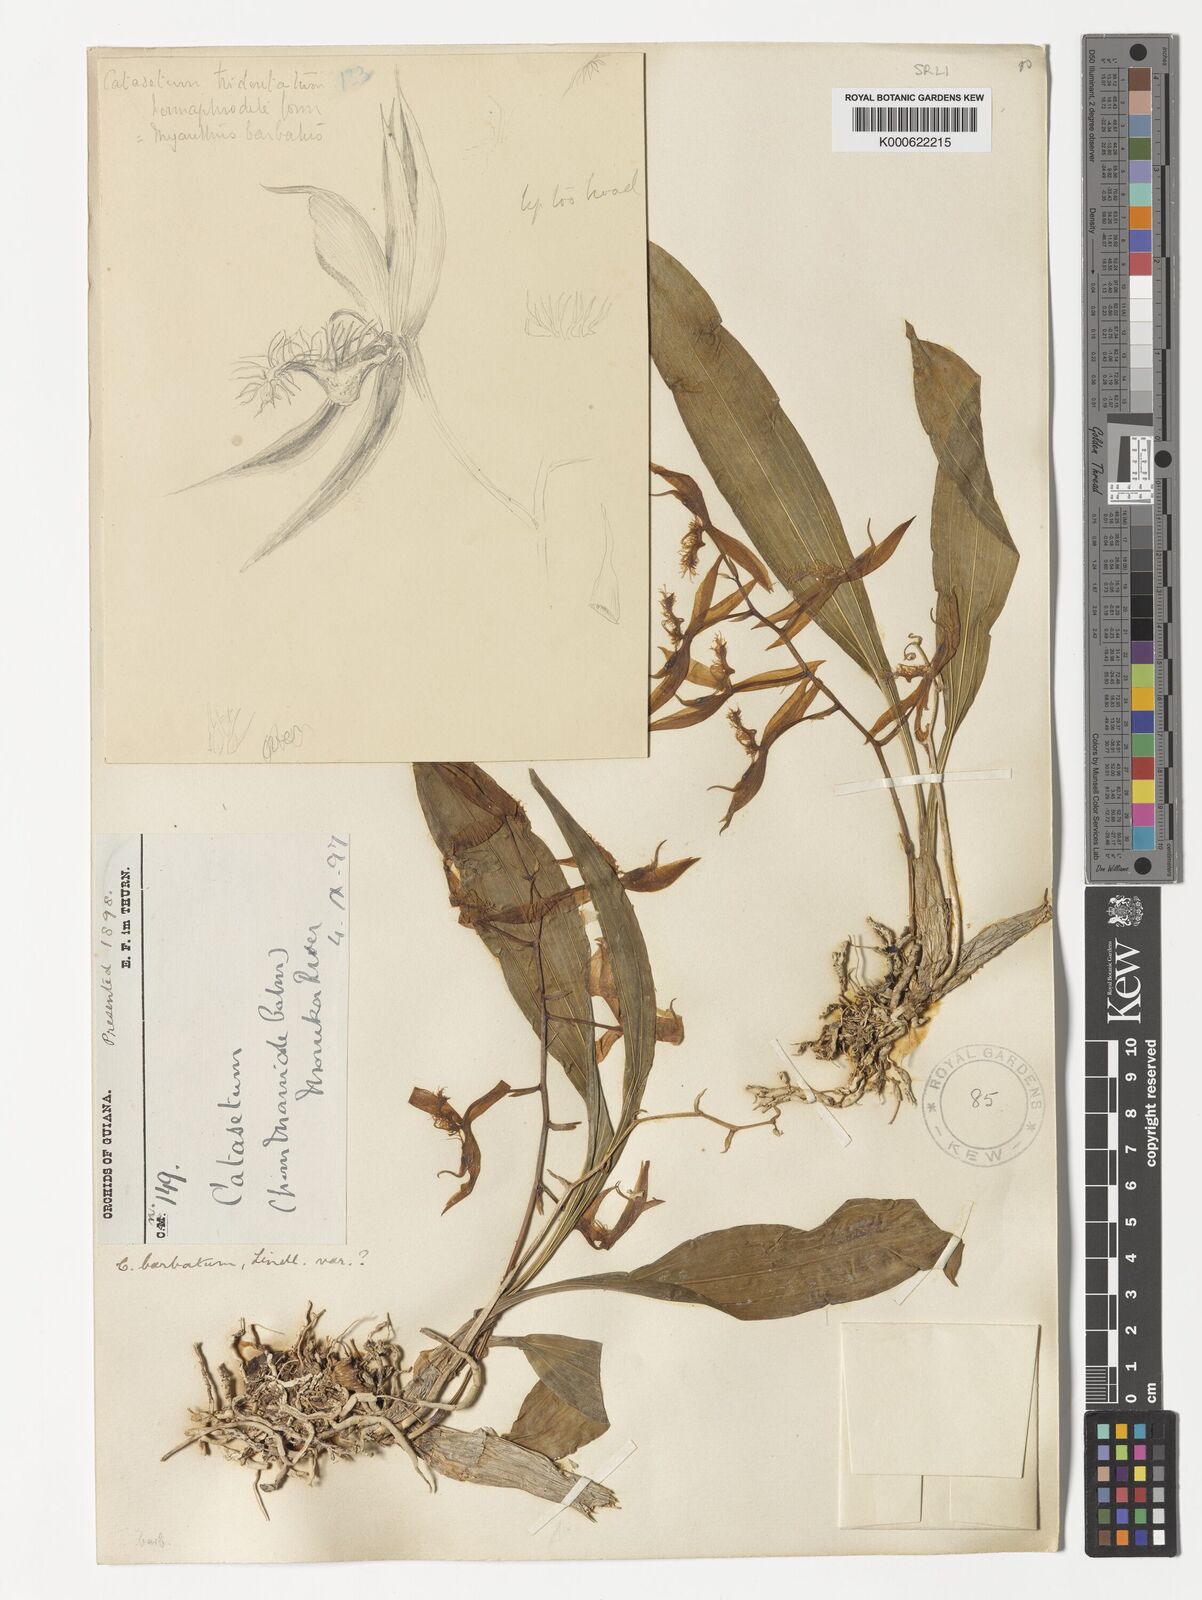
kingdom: Plantae
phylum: Tracheophyta
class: Liliopsida
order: Asparagales
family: Orchidaceae
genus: Catasetum
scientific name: Catasetum barbatum
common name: Bearded catasetum
